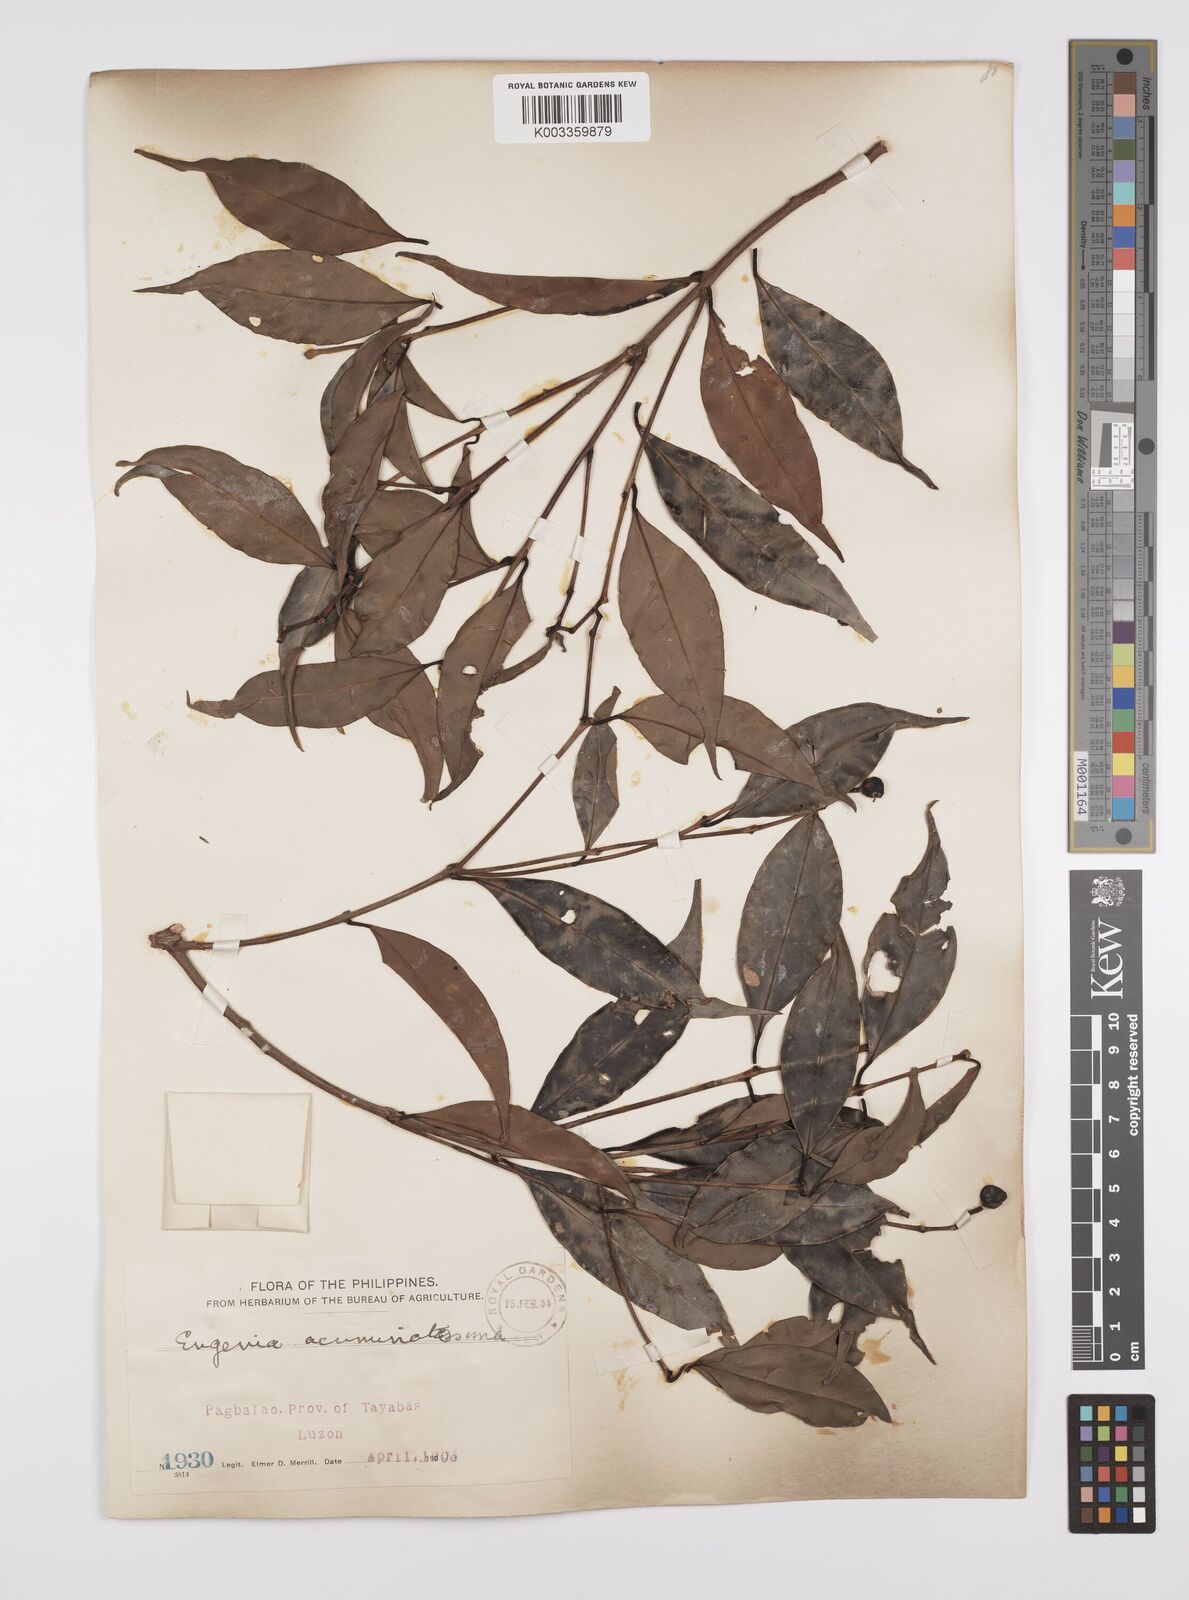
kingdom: Plantae
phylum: Tracheophyta
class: Magnoliopsida
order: Myrtales
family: Myrtaceae
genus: Syzygium
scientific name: Syzygium
